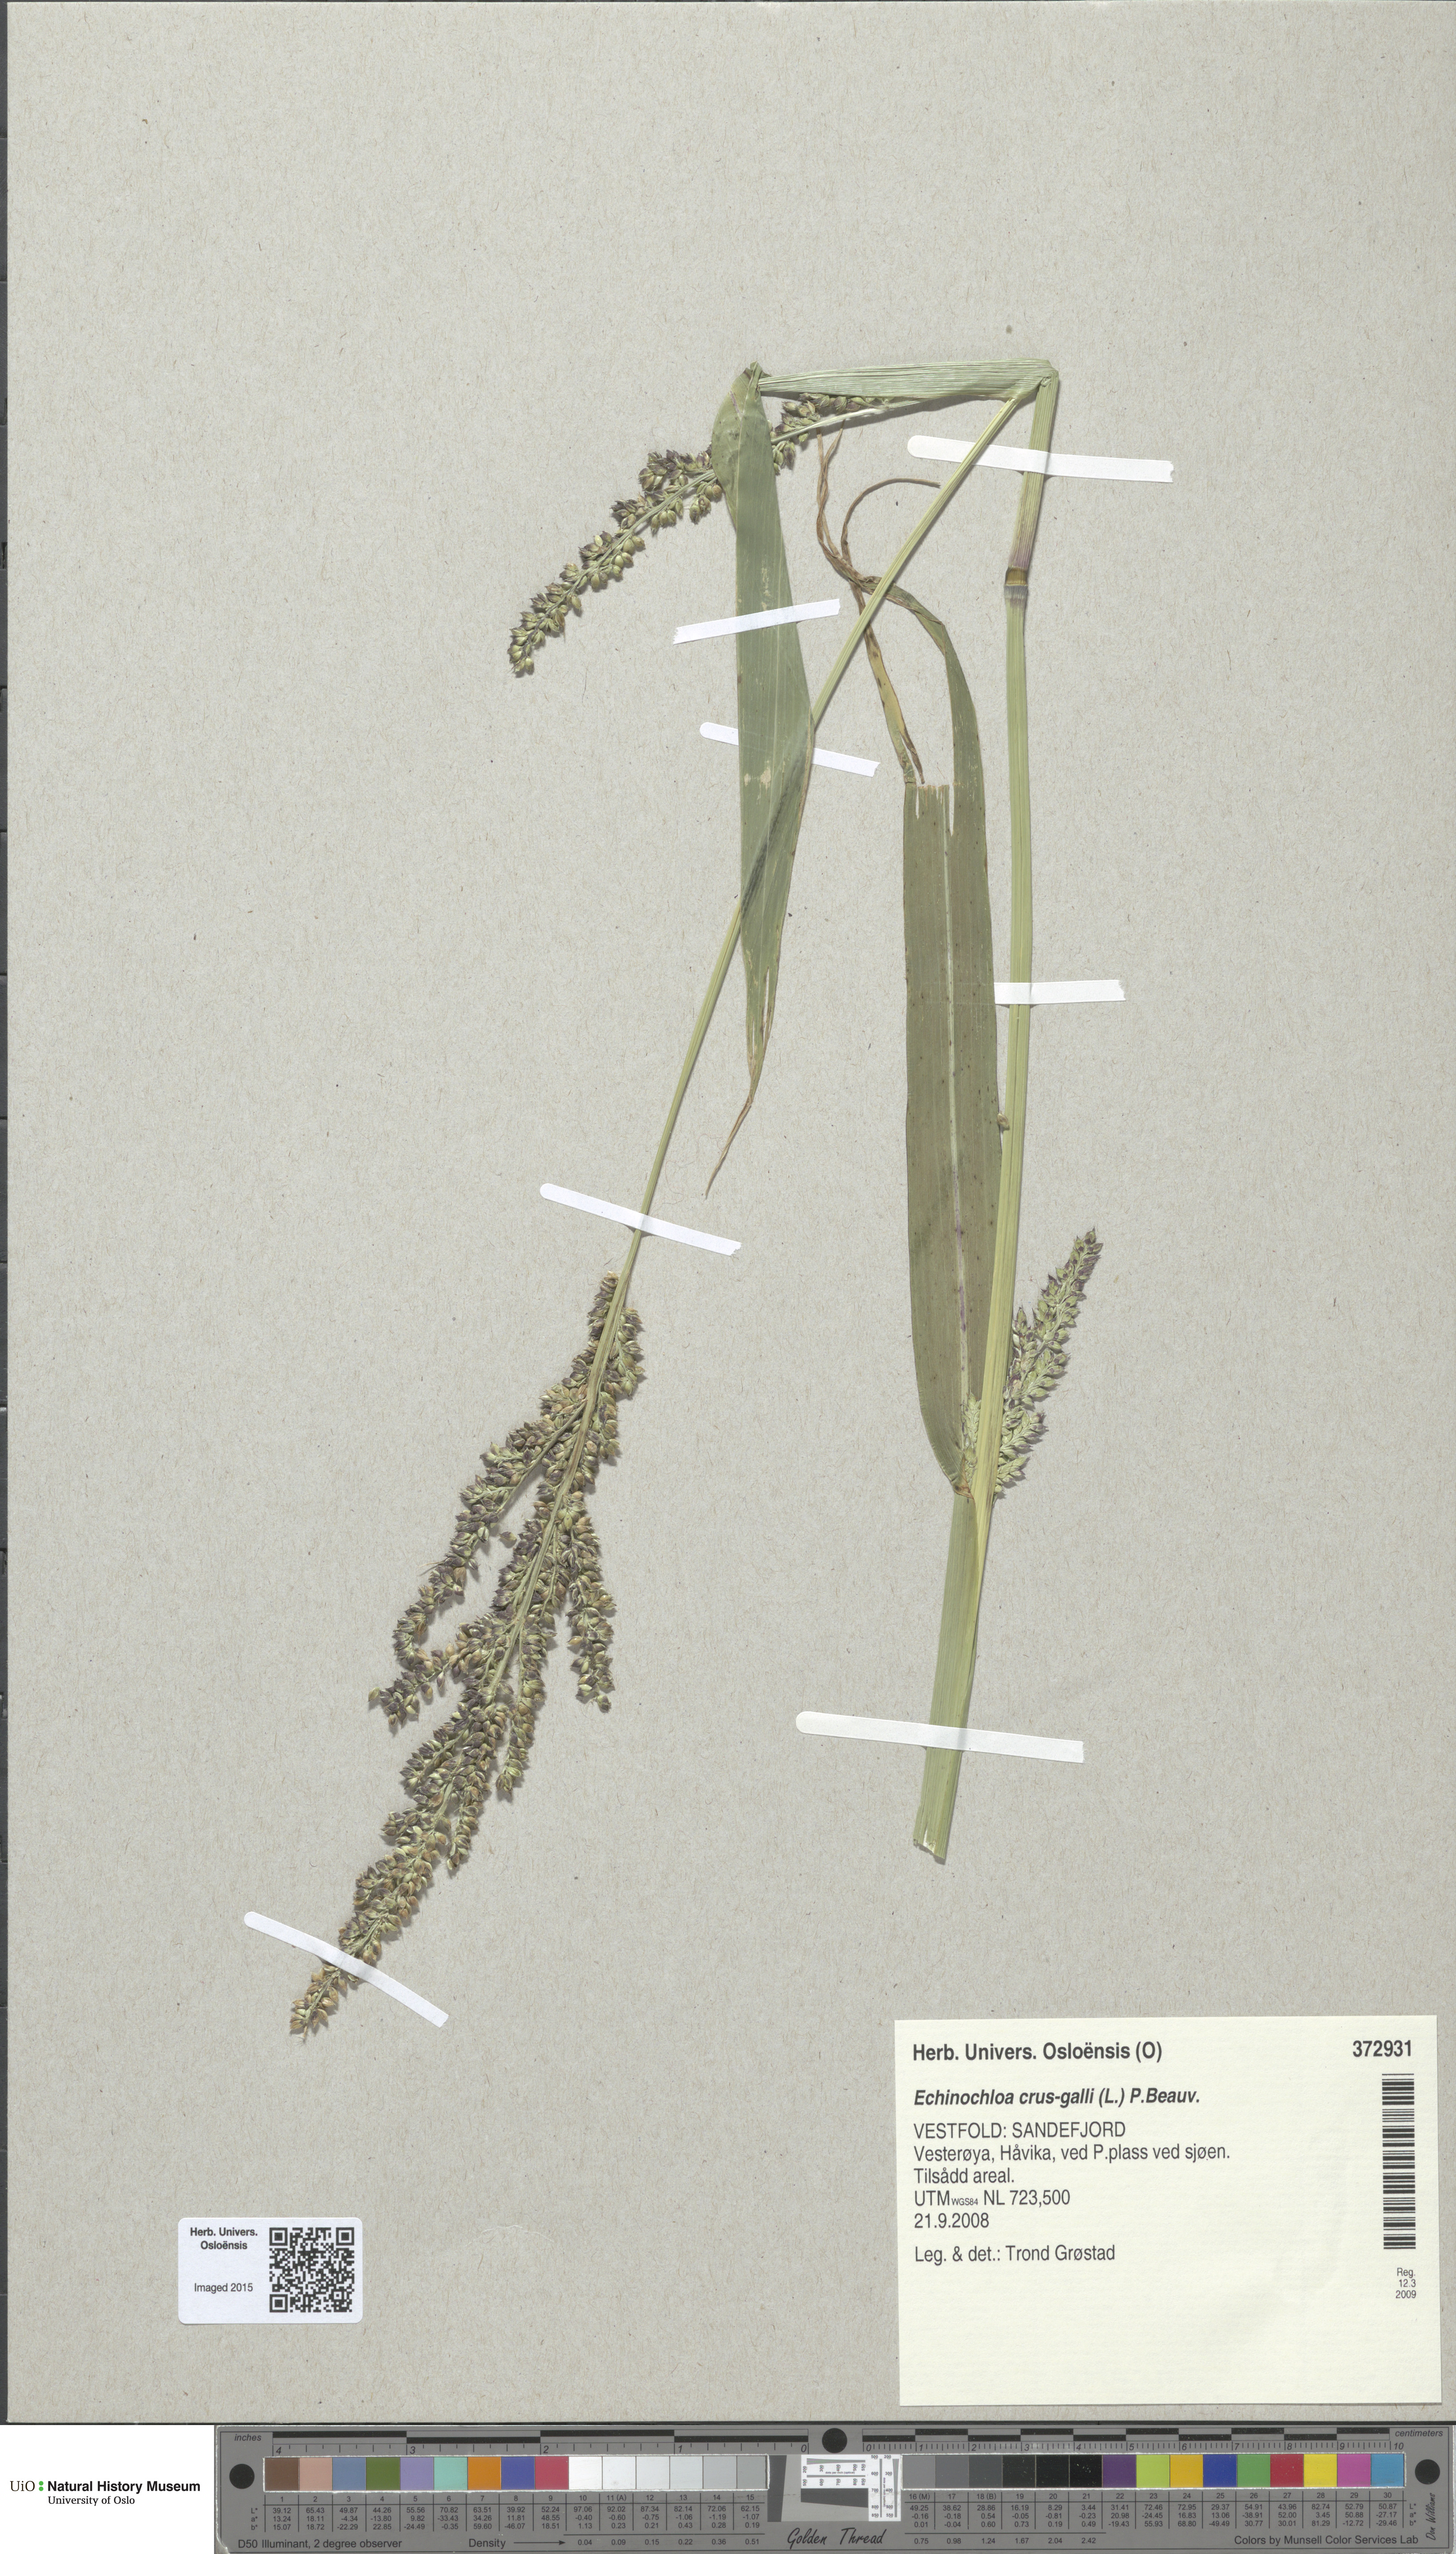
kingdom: Plantae
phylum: Tracheophyta
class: Liliopsida
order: Poales
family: Poaceae
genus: Echinochloa
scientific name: Echinochloa crus-galli
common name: Cockspur
